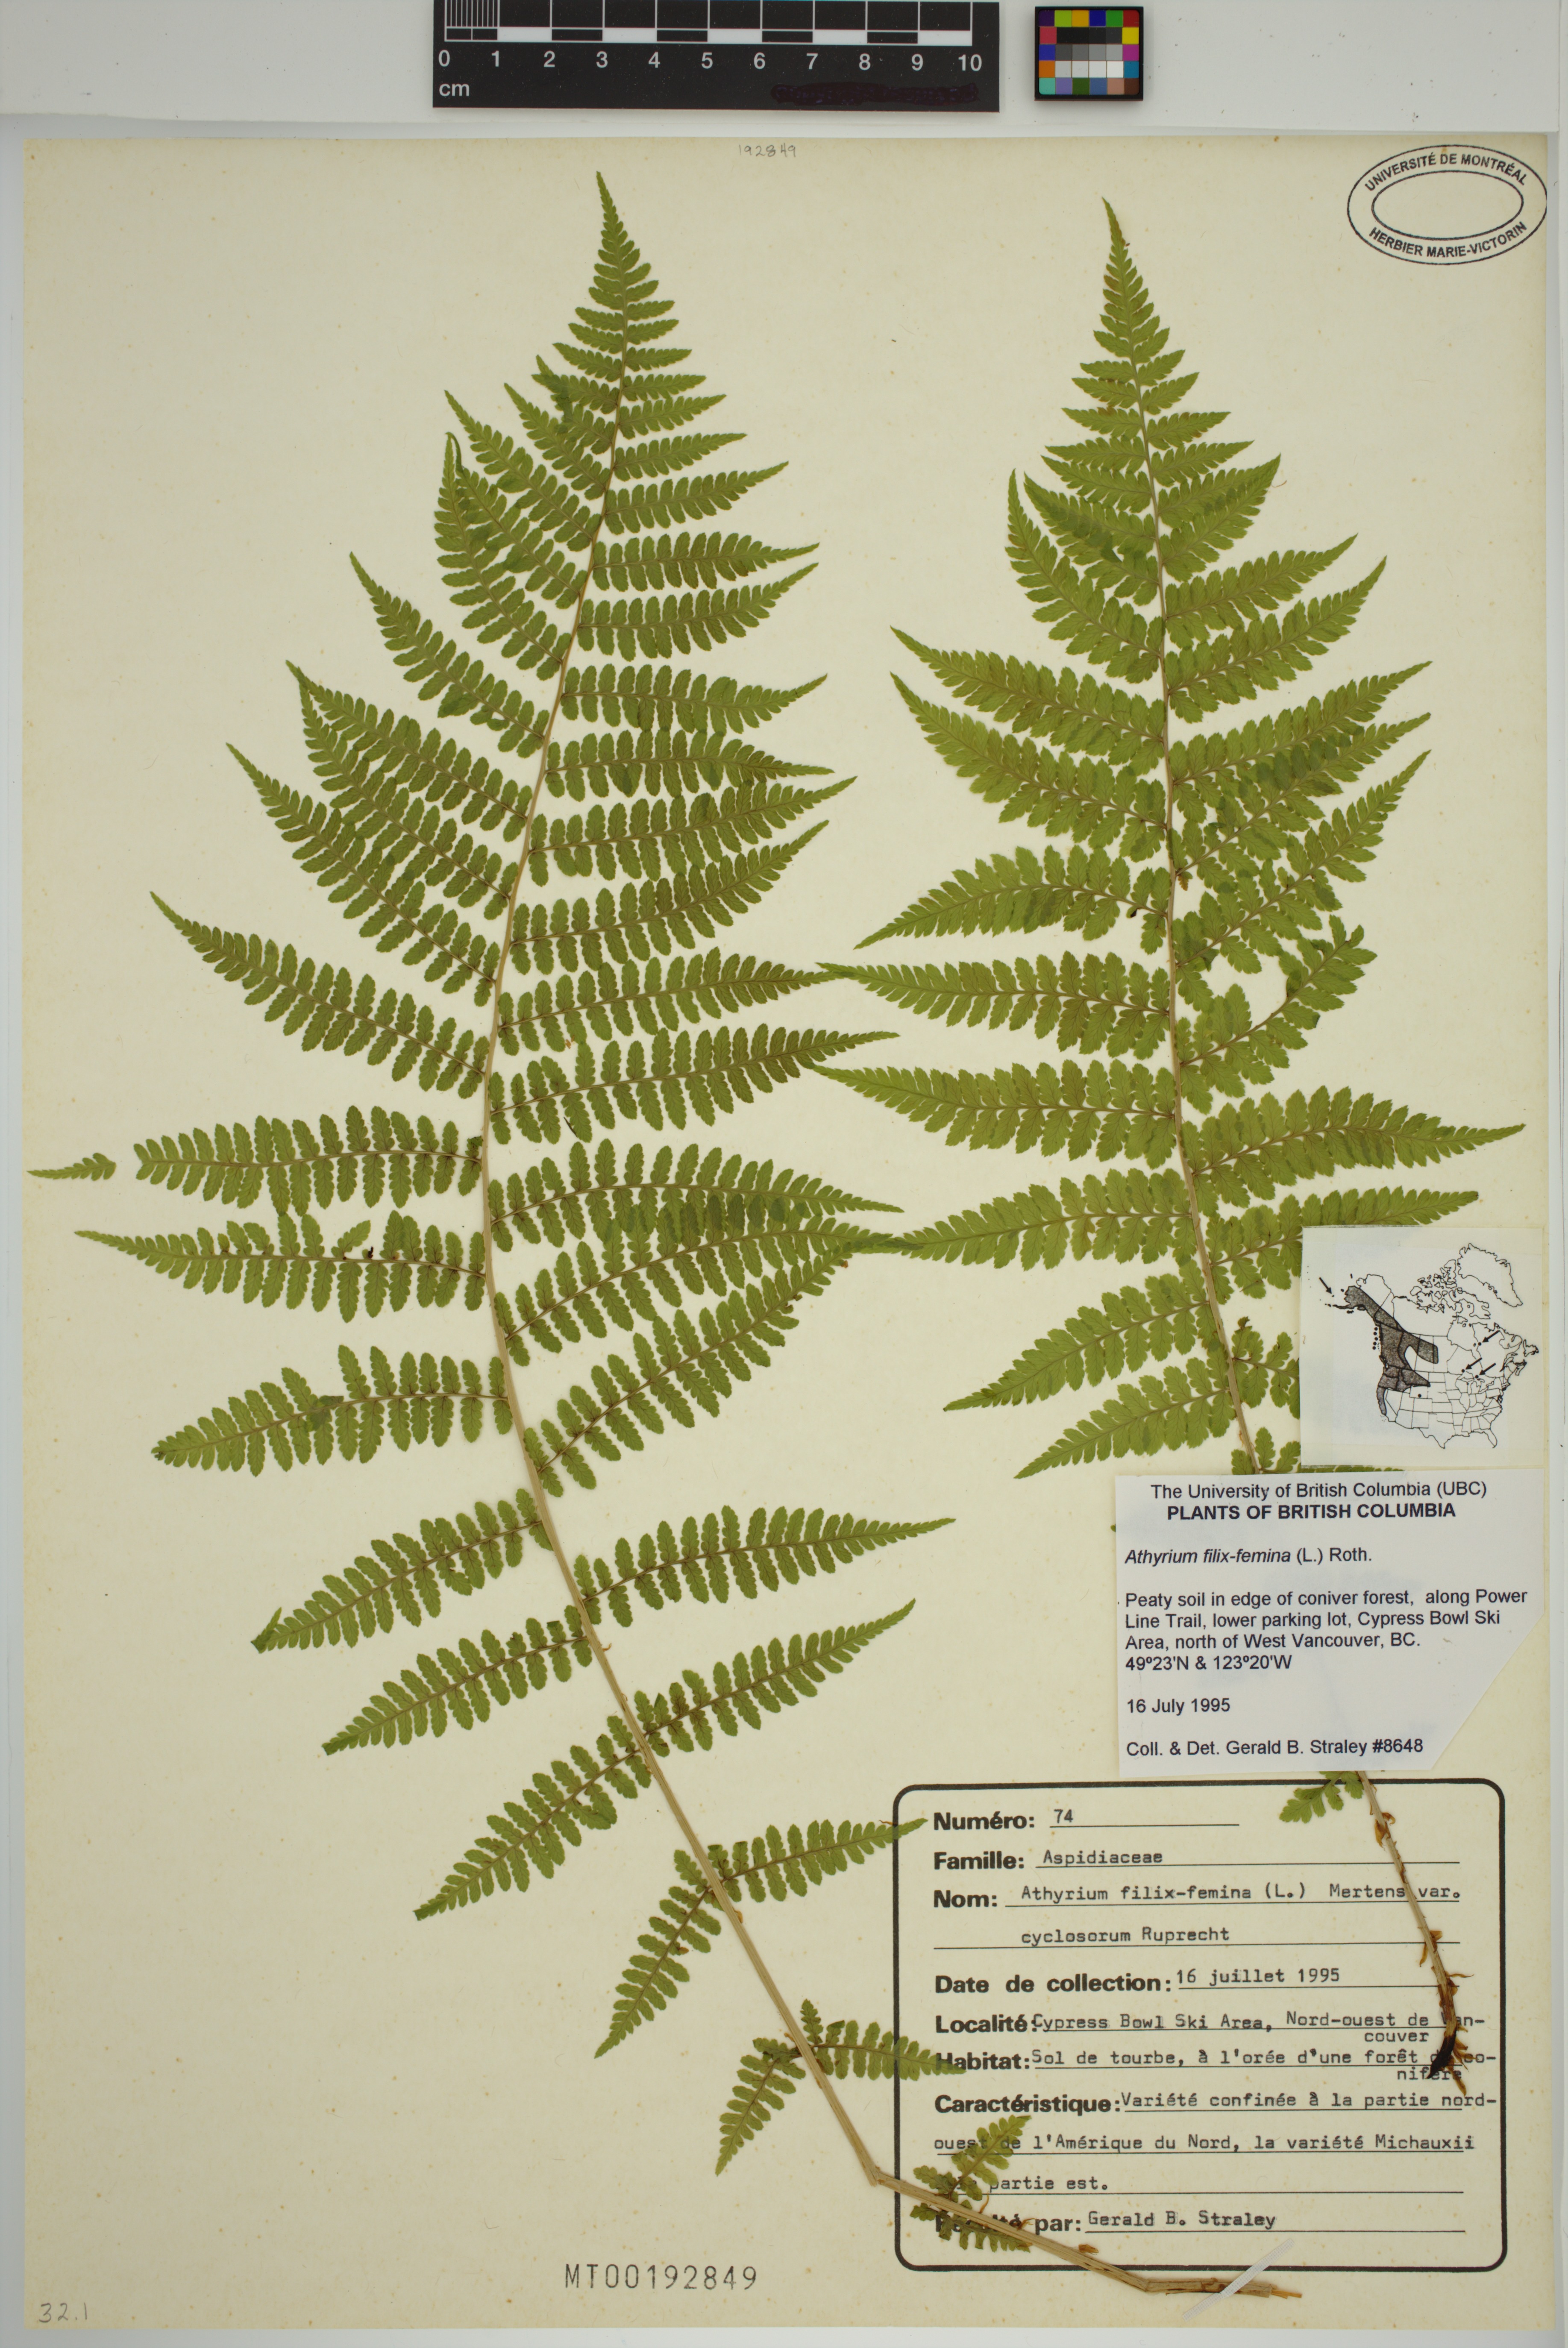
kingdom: Plantae
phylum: Tracheophyta
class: Polypodiopsida
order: Polypodiales
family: Athyriaceae
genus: Athyrium
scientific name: Athyrium cyclosorum
